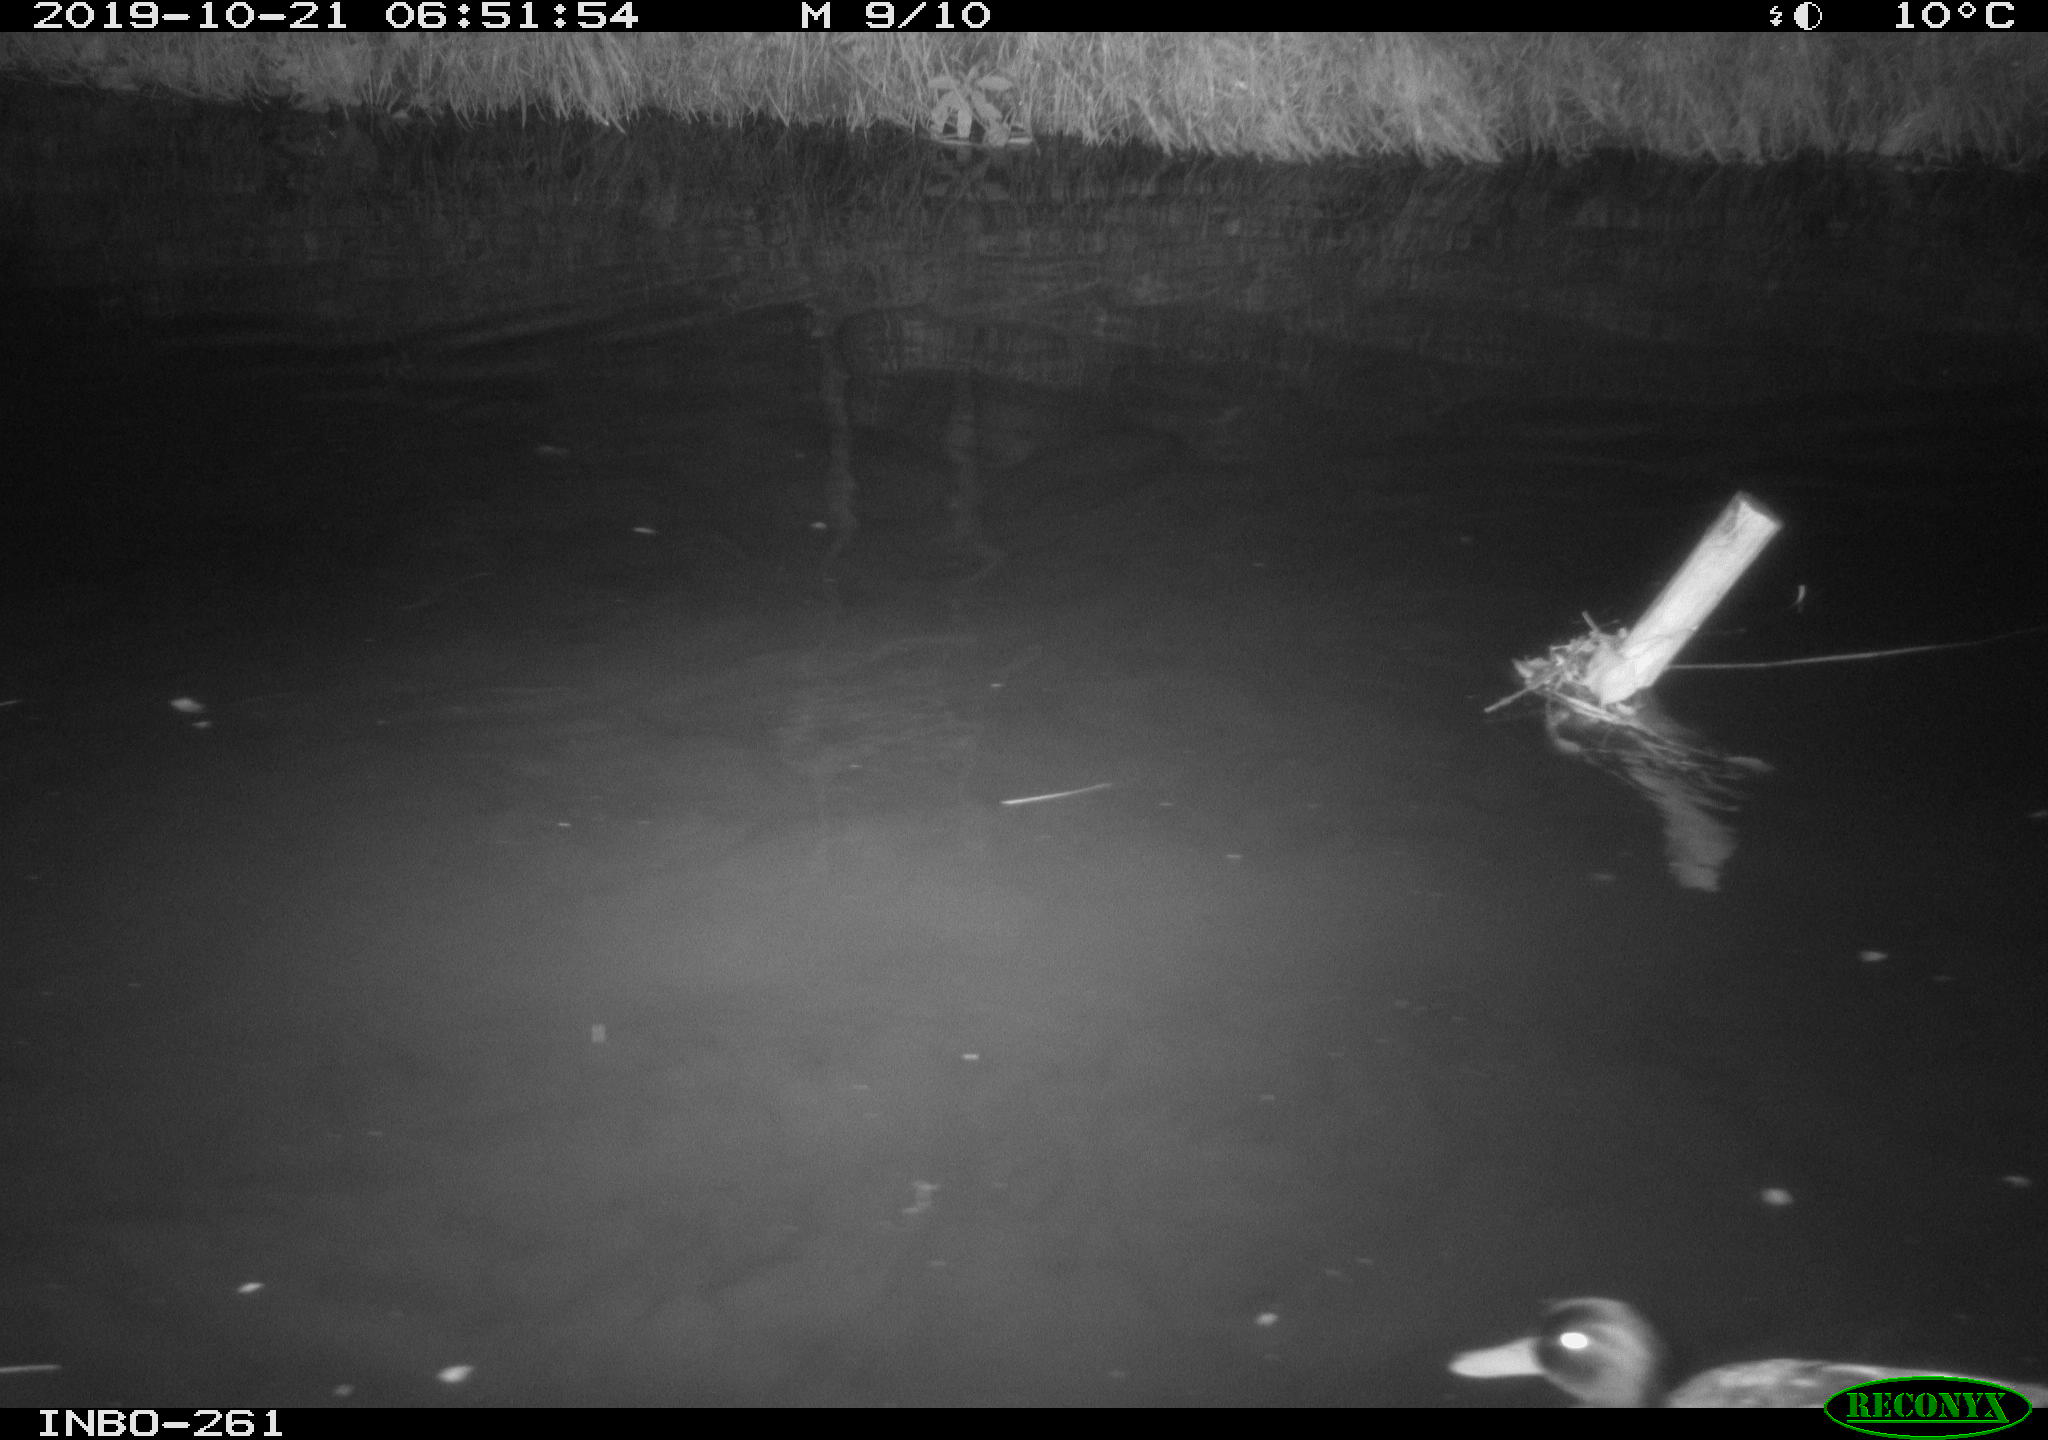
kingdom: Animalia
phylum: Chordata
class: Aves
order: Anseriformes
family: Anatidae
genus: Anas
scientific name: Anas platyrhynchos
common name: Mallard
